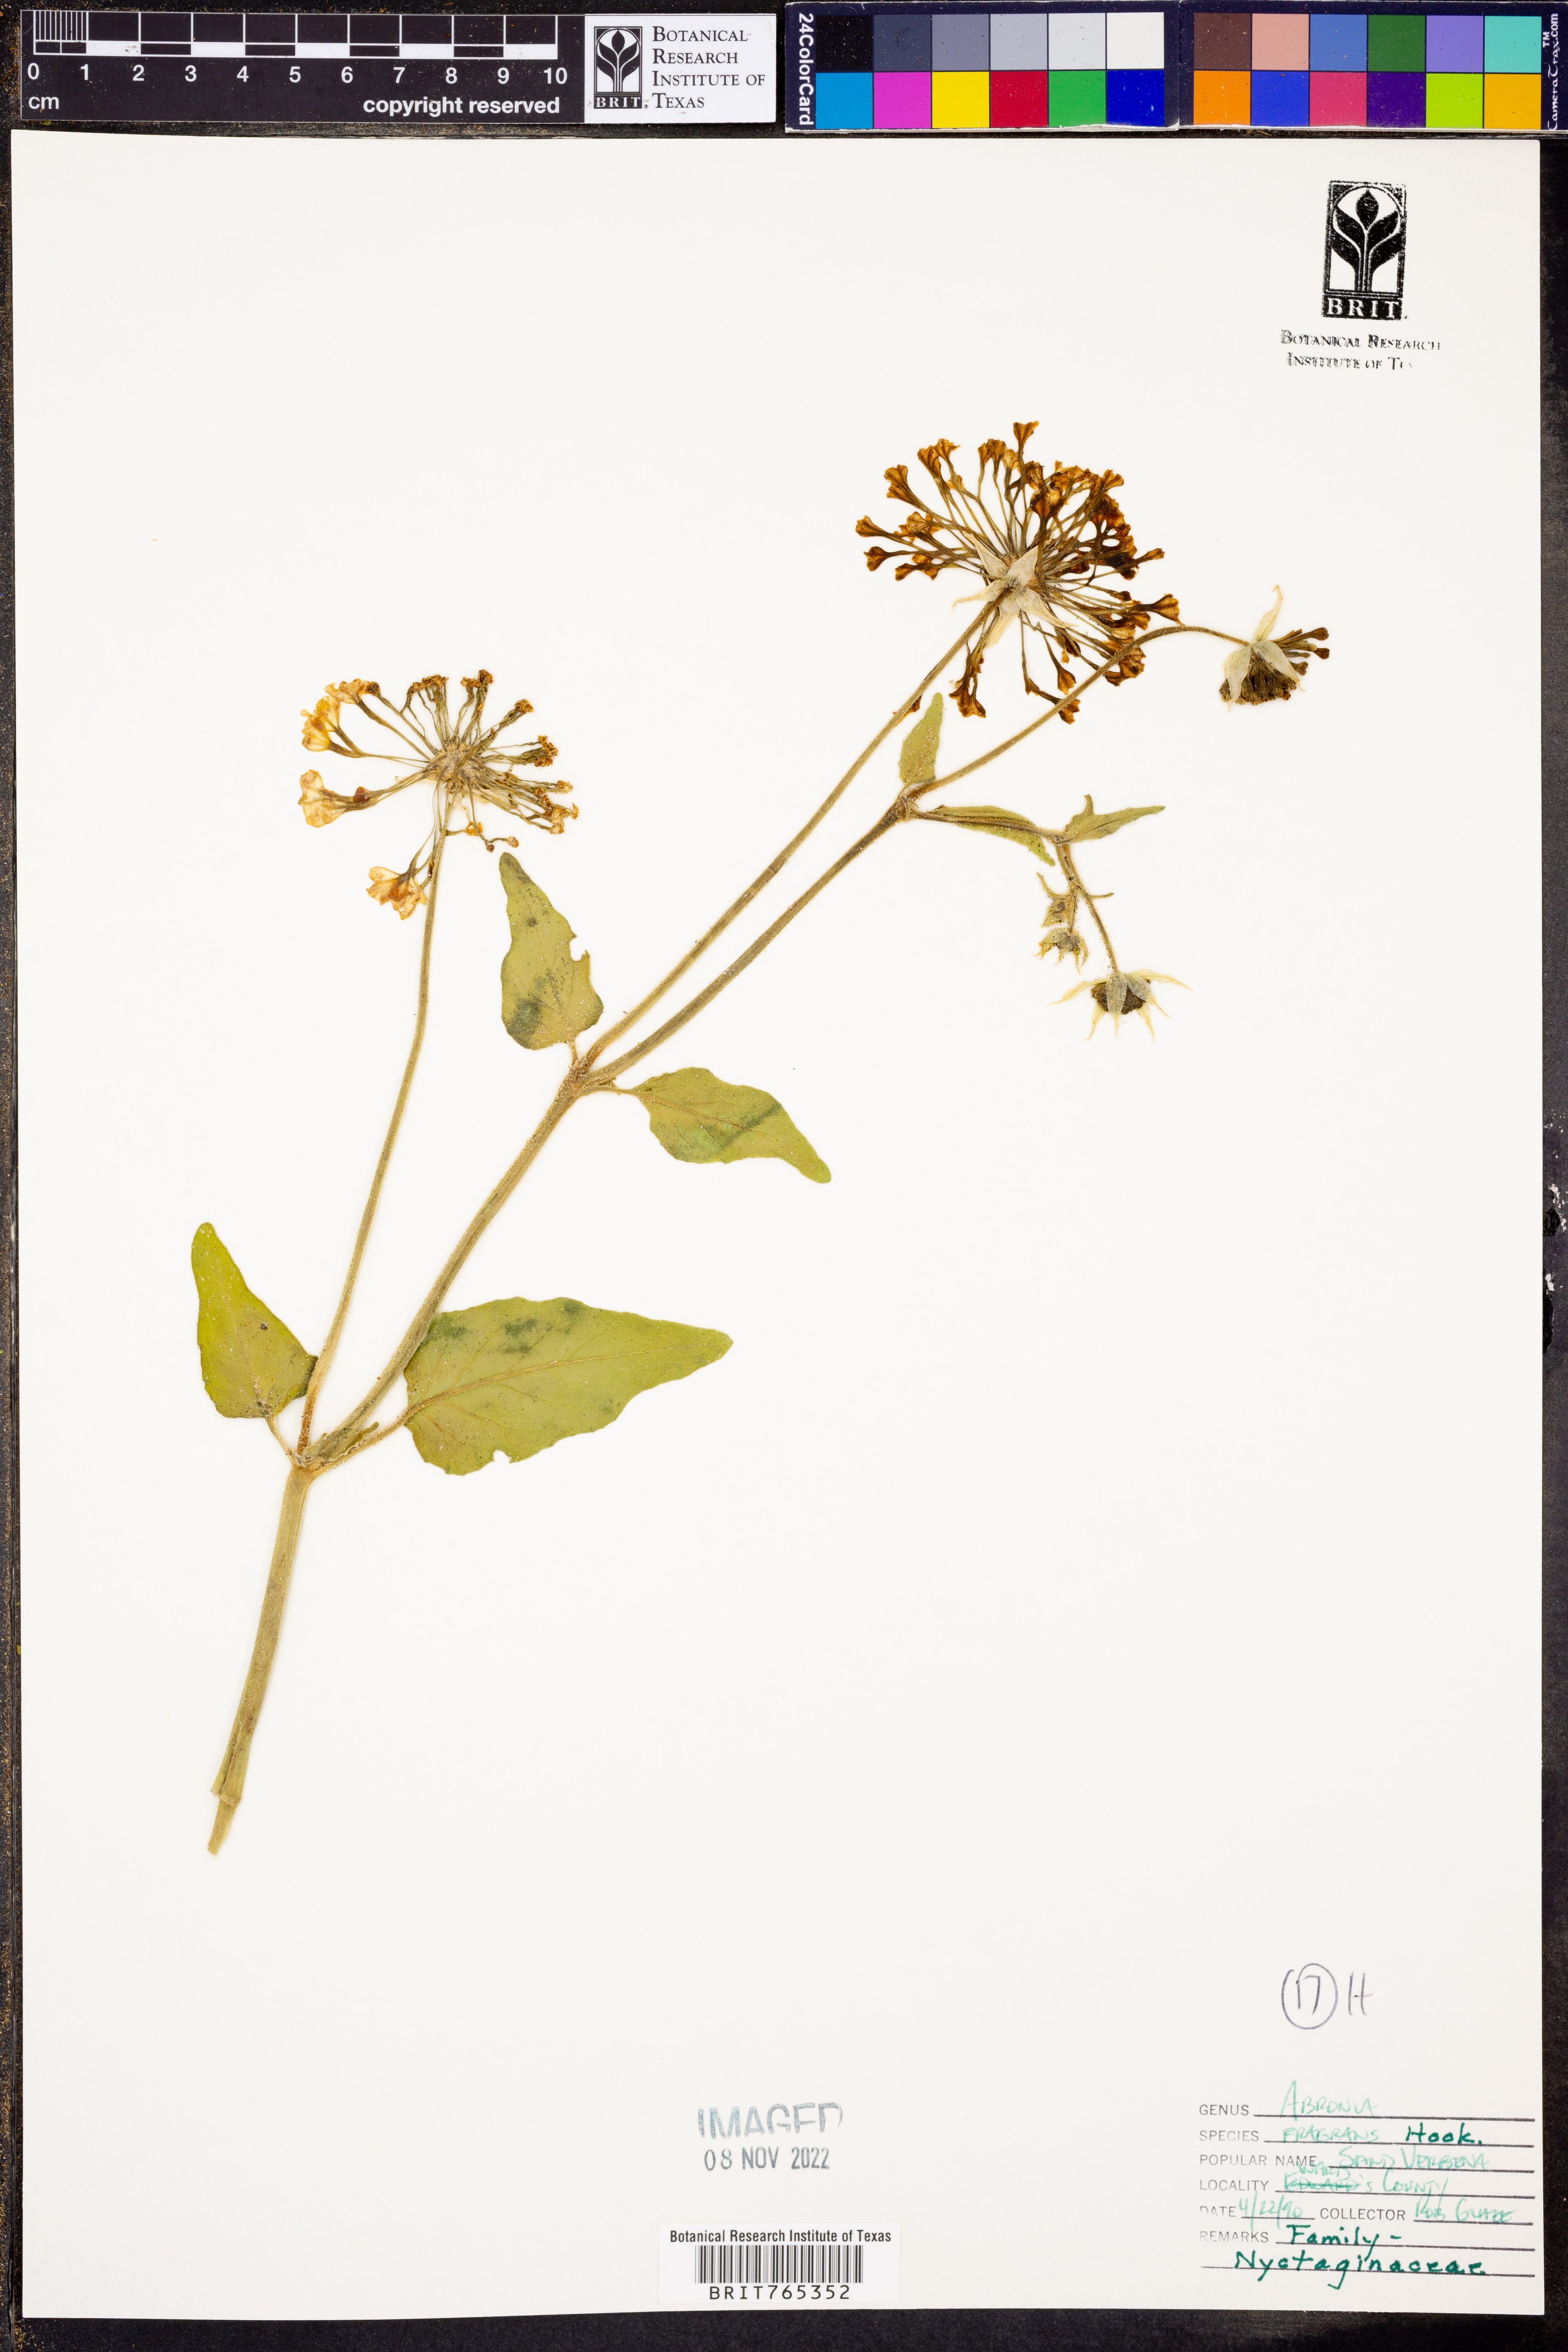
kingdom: Plantae
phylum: Tracheophyta
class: Magnoliopsida
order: Caryophyllales
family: Nyctaginaceae
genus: Abronia
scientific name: Abronia fragrans
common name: Fragrant sand-verbena
